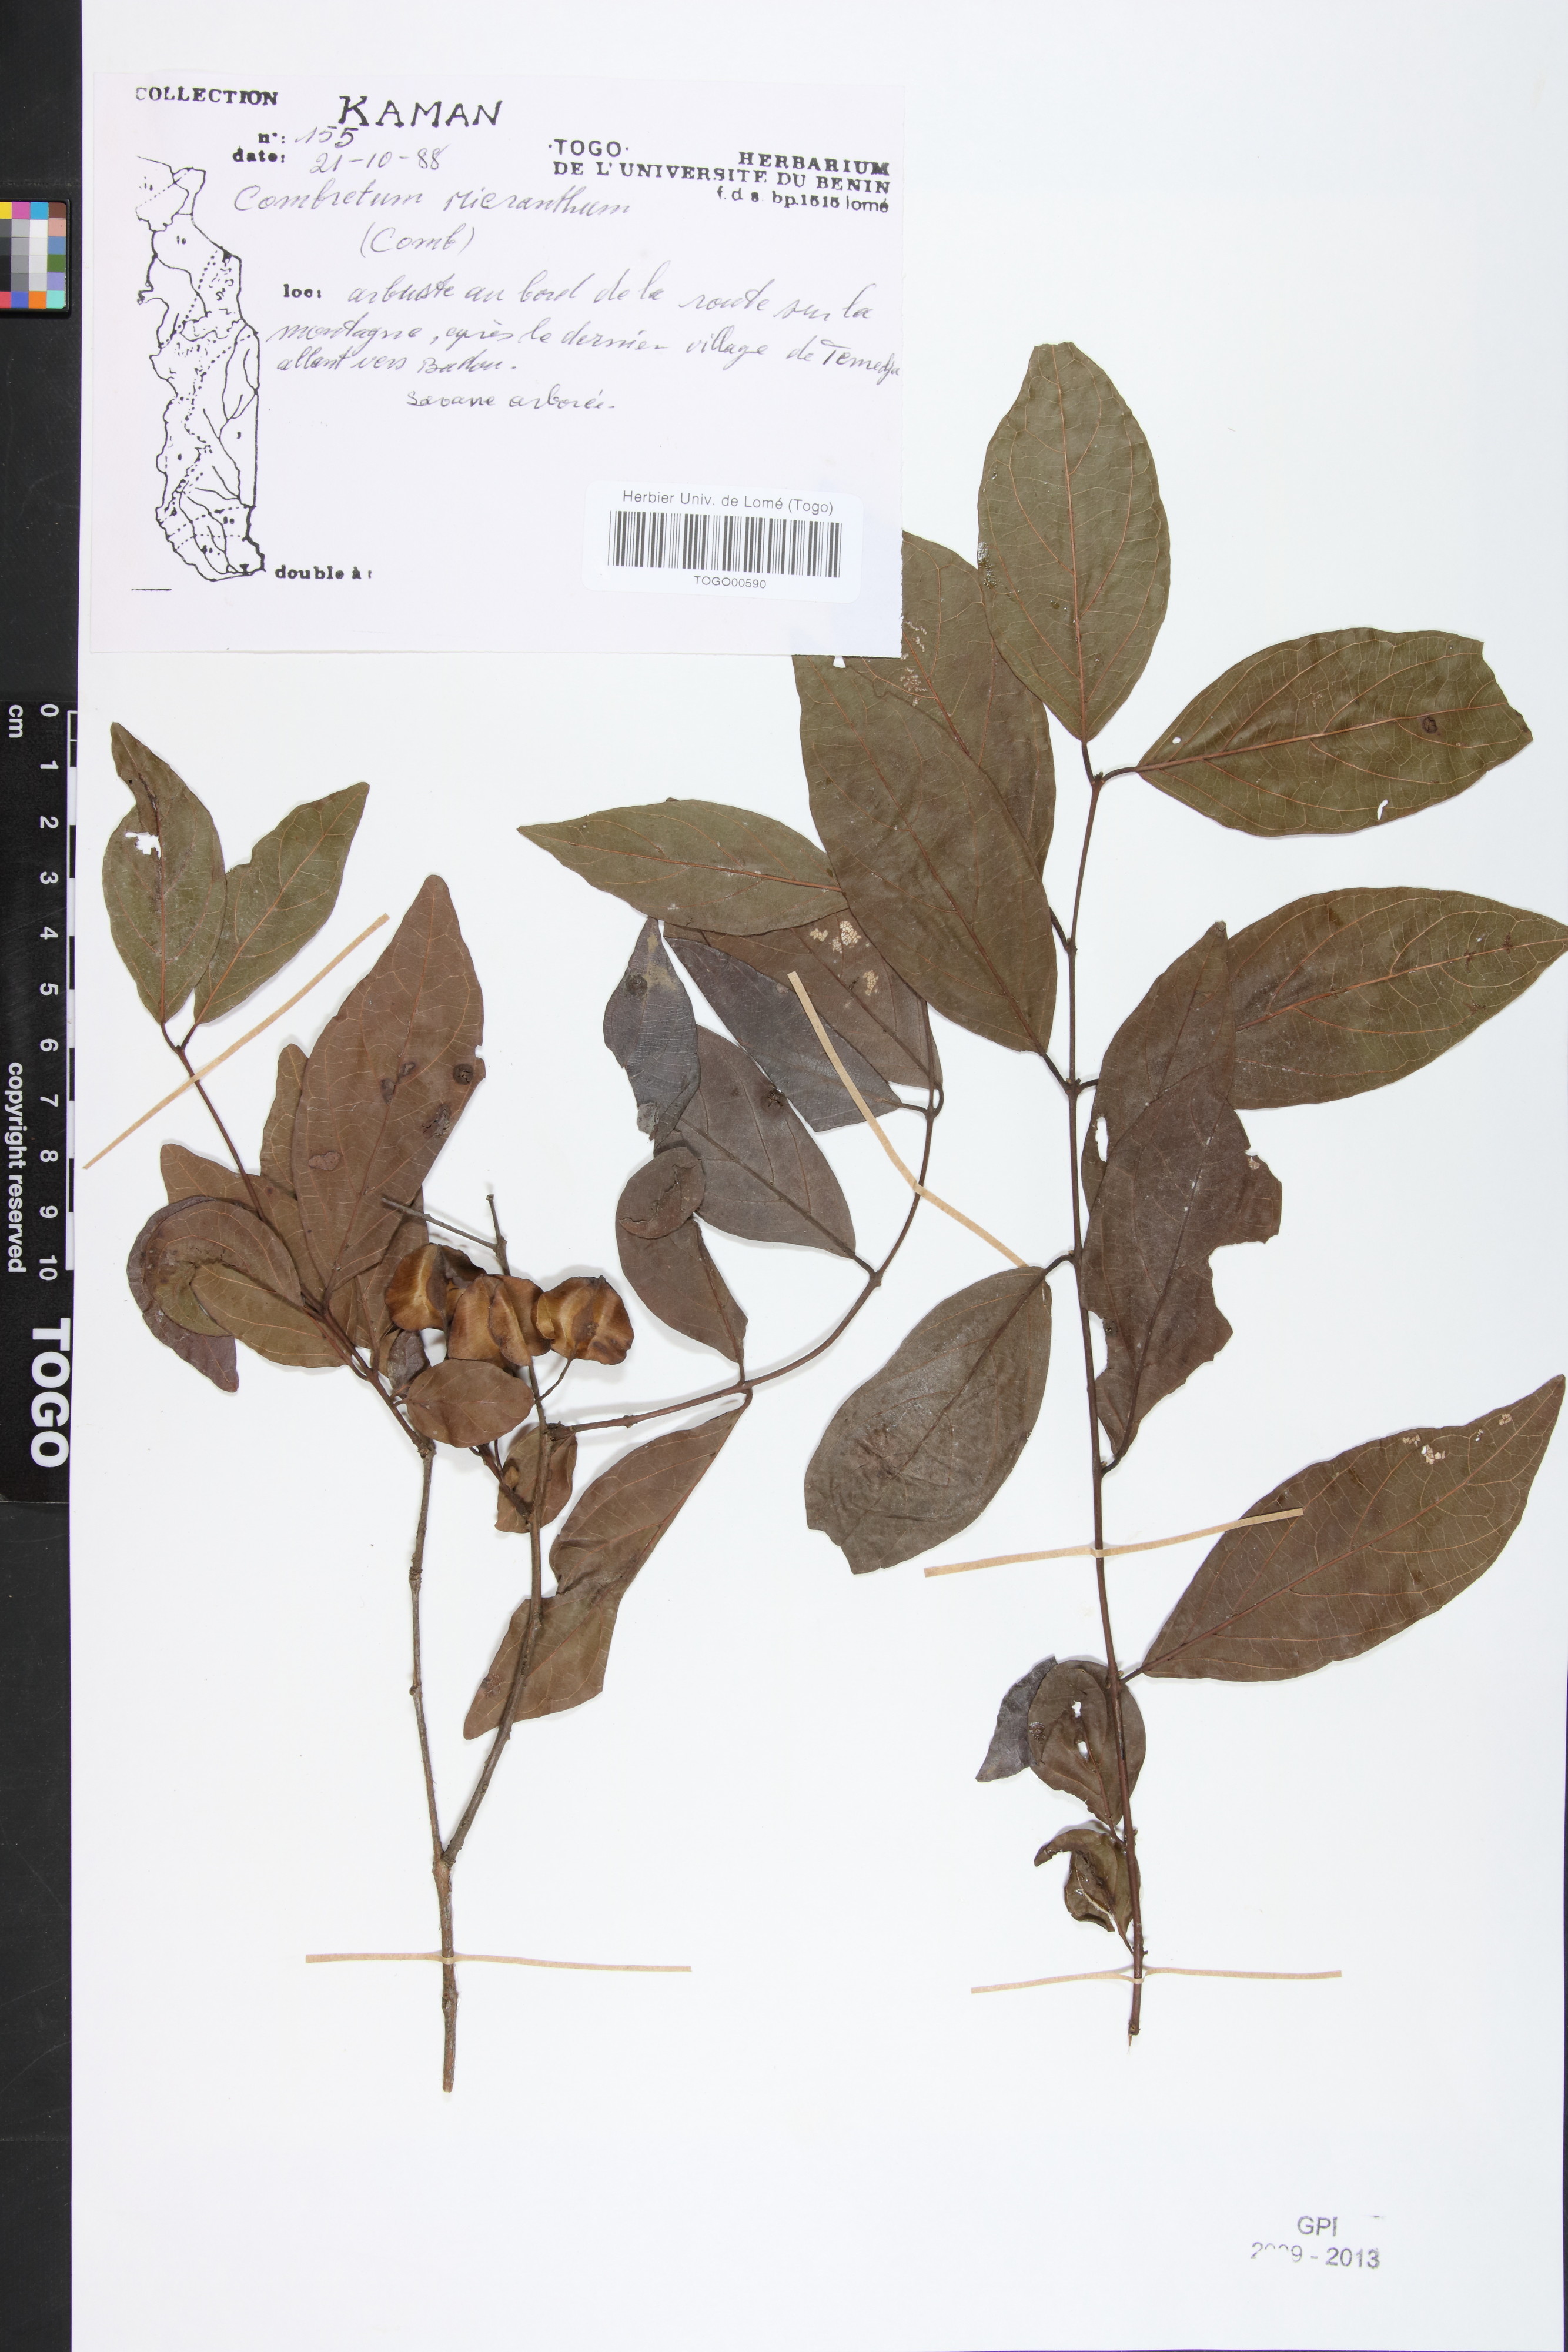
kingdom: Plantae
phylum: Tracheophyta
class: Magnoliopsida
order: Myrtales
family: Combretaceae
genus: Combretum
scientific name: Combretum micranthum
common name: Opium-antidote
